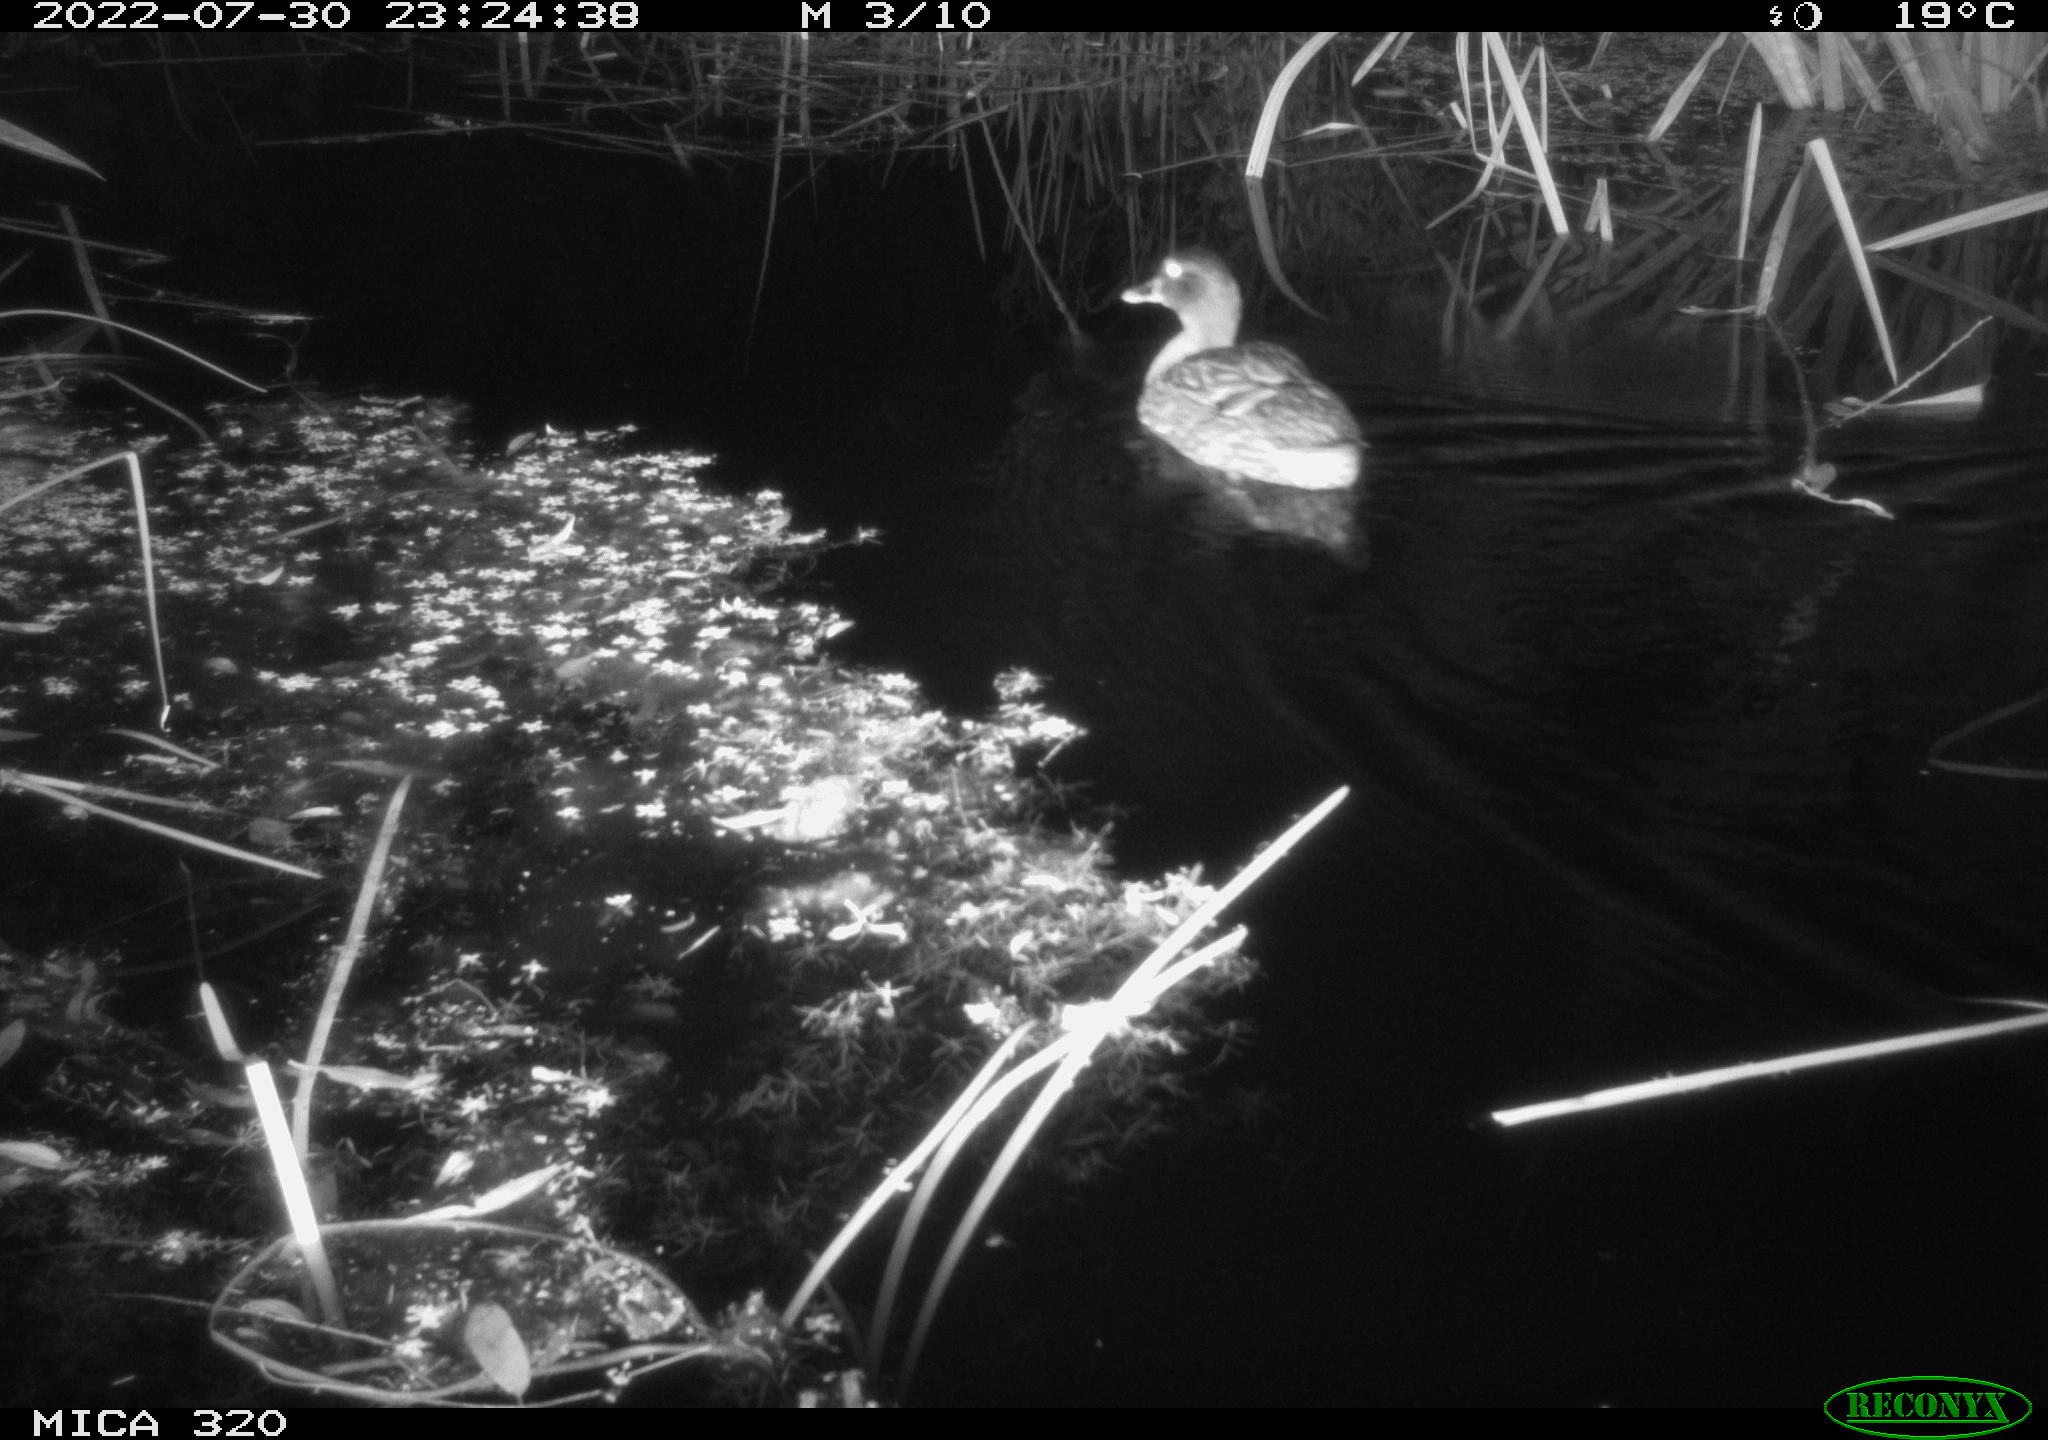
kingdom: Animalia
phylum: Chordata
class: Aves
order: Anseriformes
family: Anatidae
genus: Anas
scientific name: Anas platyrhynchos
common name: Mallard
